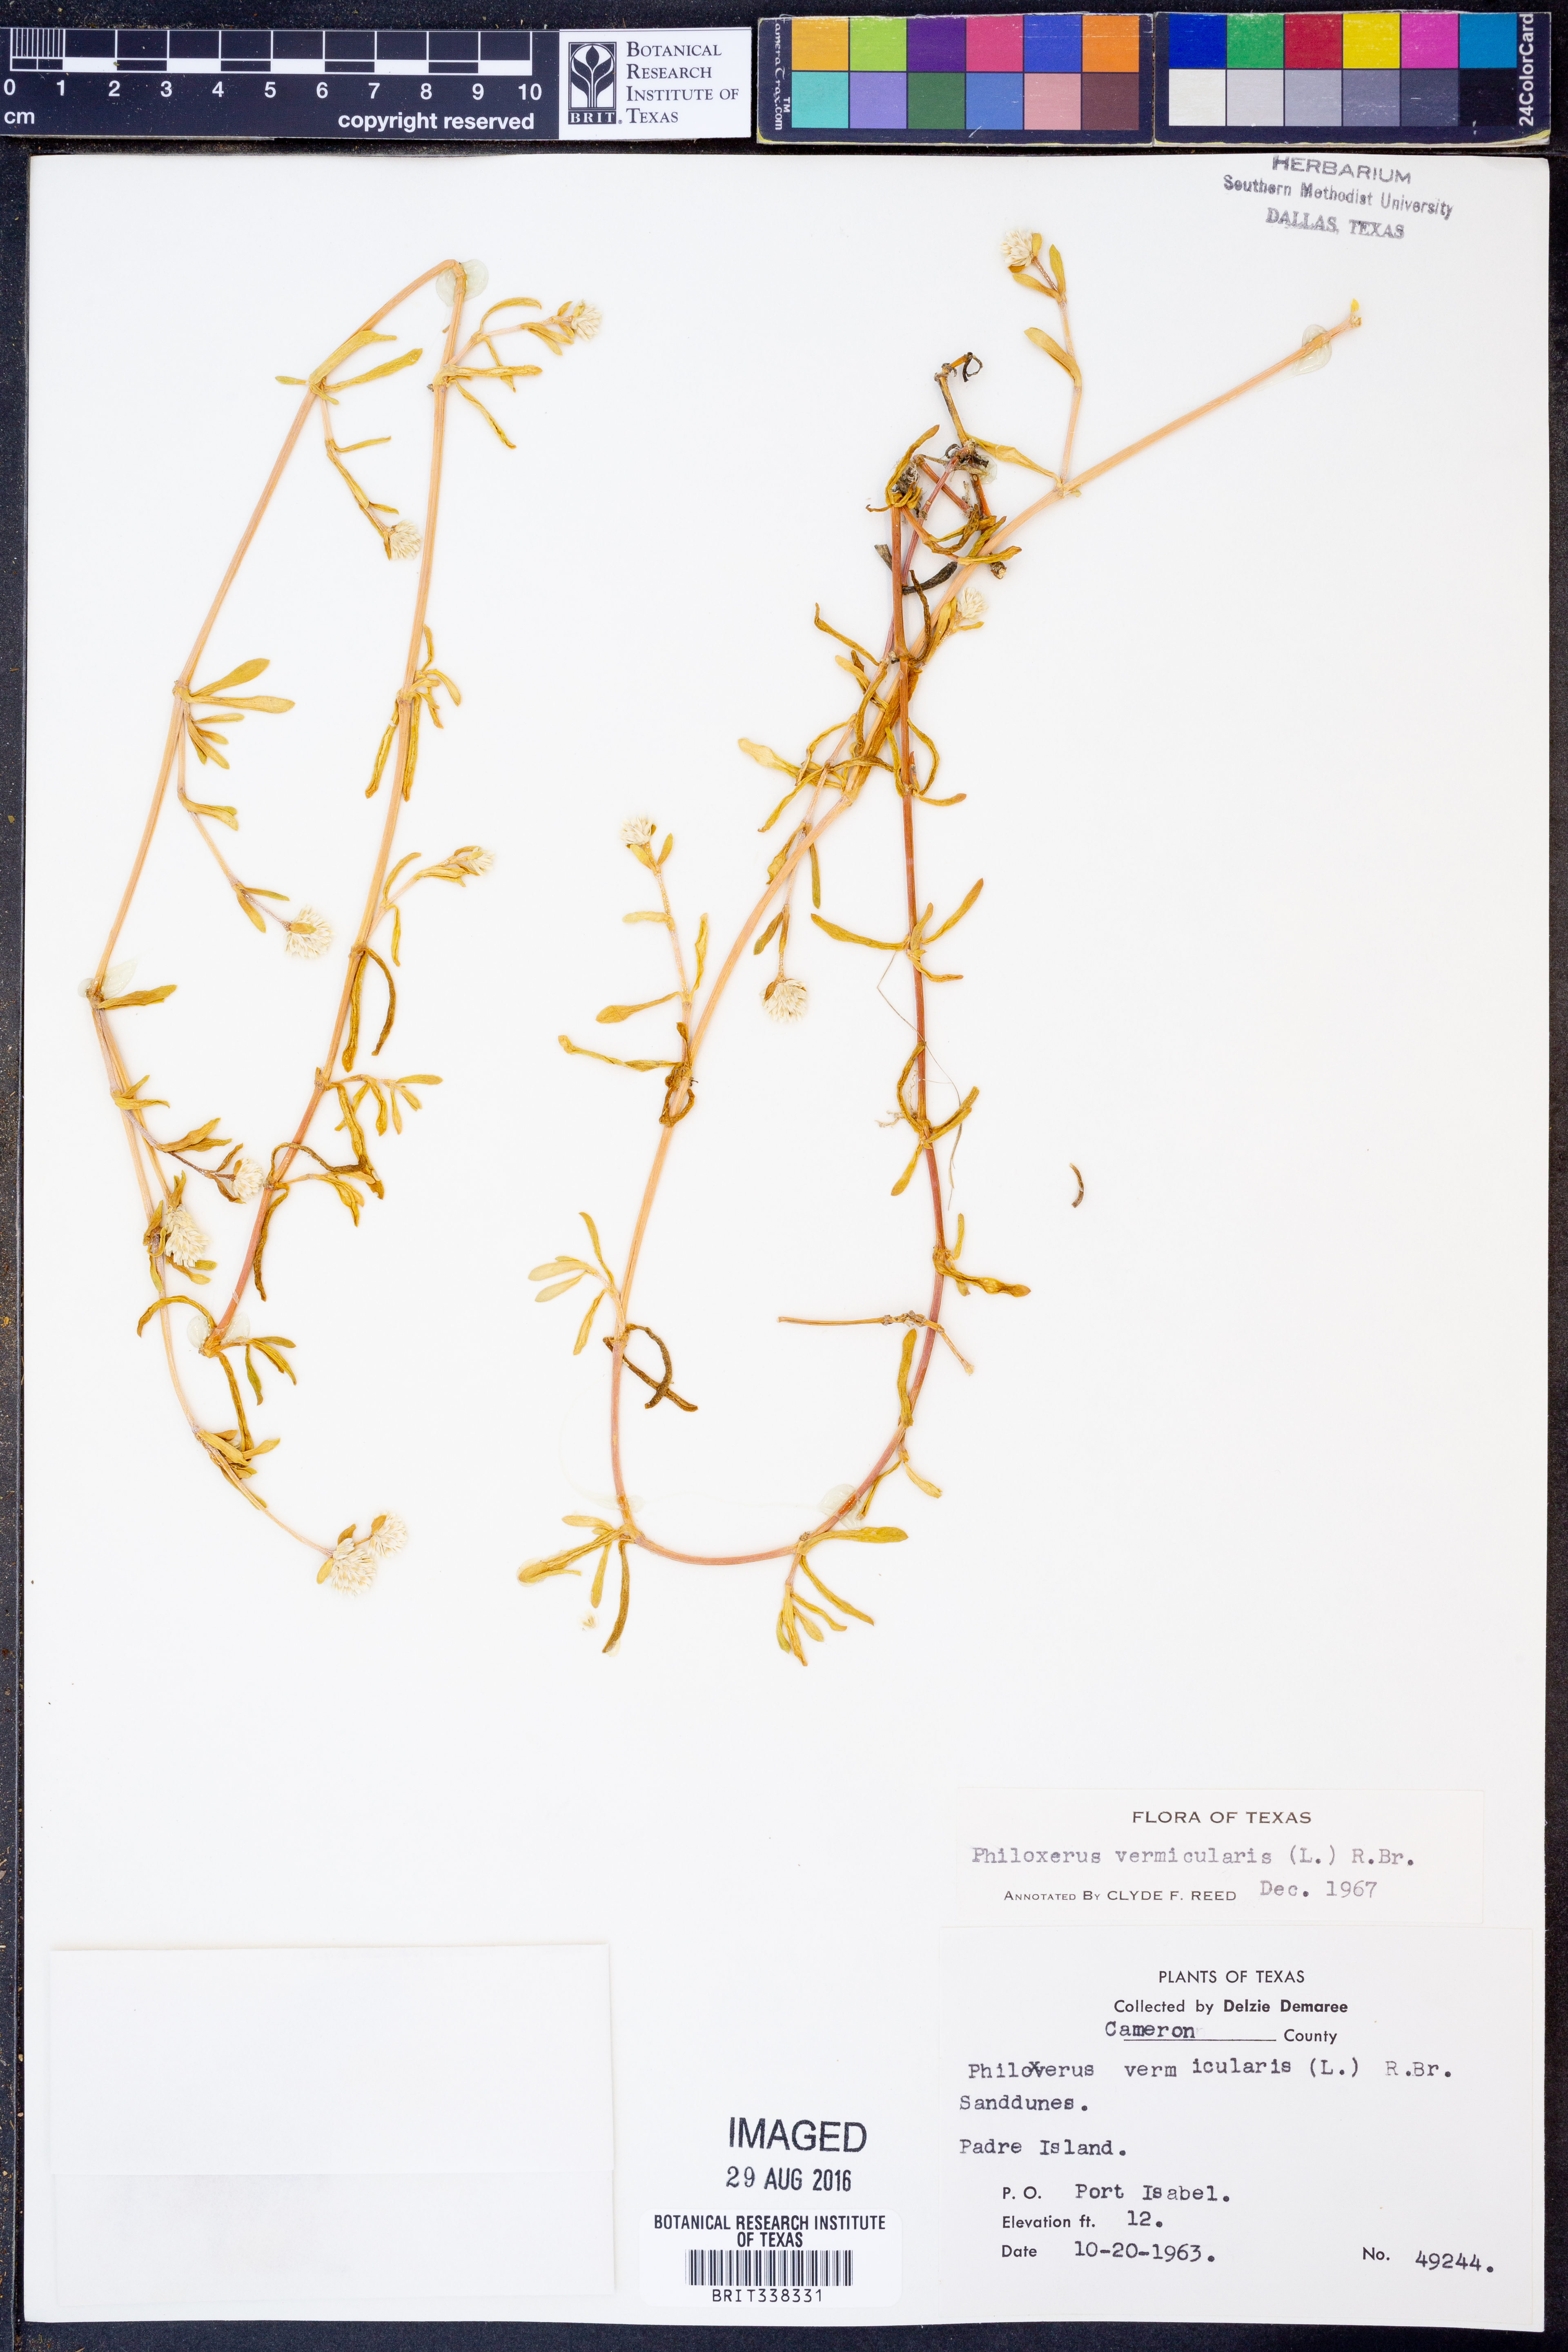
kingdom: Plantae
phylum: Tracheophyta
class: Magnoliopsida
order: Caryophyllales
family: Amaranthaceae
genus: Gomphrena
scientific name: Gomphrena
